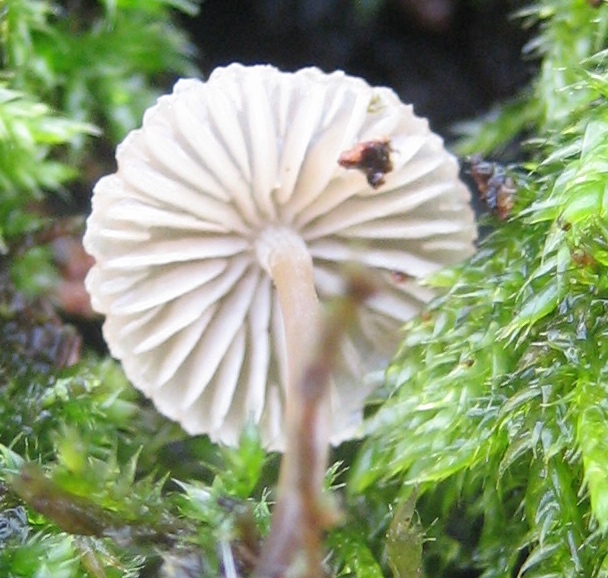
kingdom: Fungi
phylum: Basidiomycota
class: Agaricomycetes
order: Agaricales
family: Mycenaceae
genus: Mycena
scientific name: Mycena
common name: huesvamp
